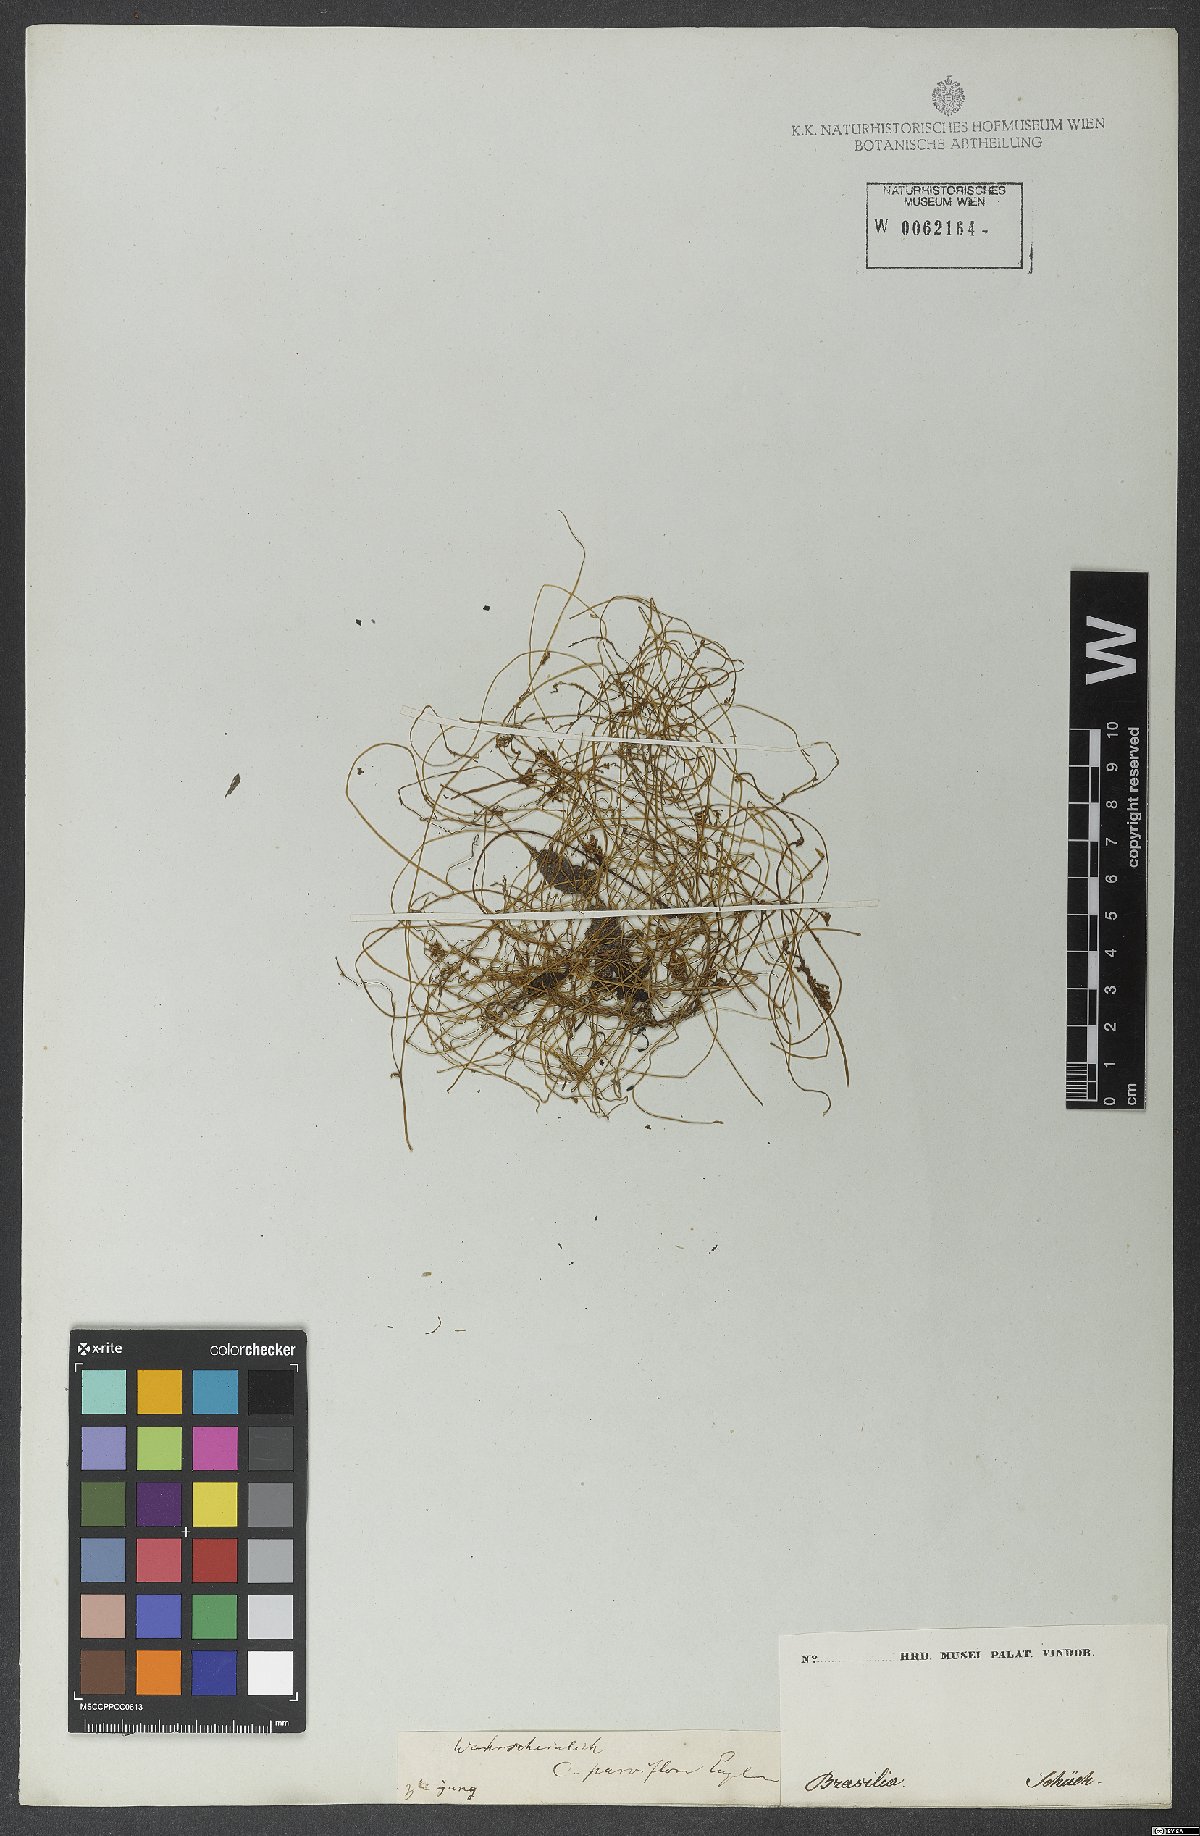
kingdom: Plantae
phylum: Tracheophyta
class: Magnoliopsida
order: Solanales
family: Convolvulaceae
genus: Cuscuta
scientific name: Cuscuta parviflora
